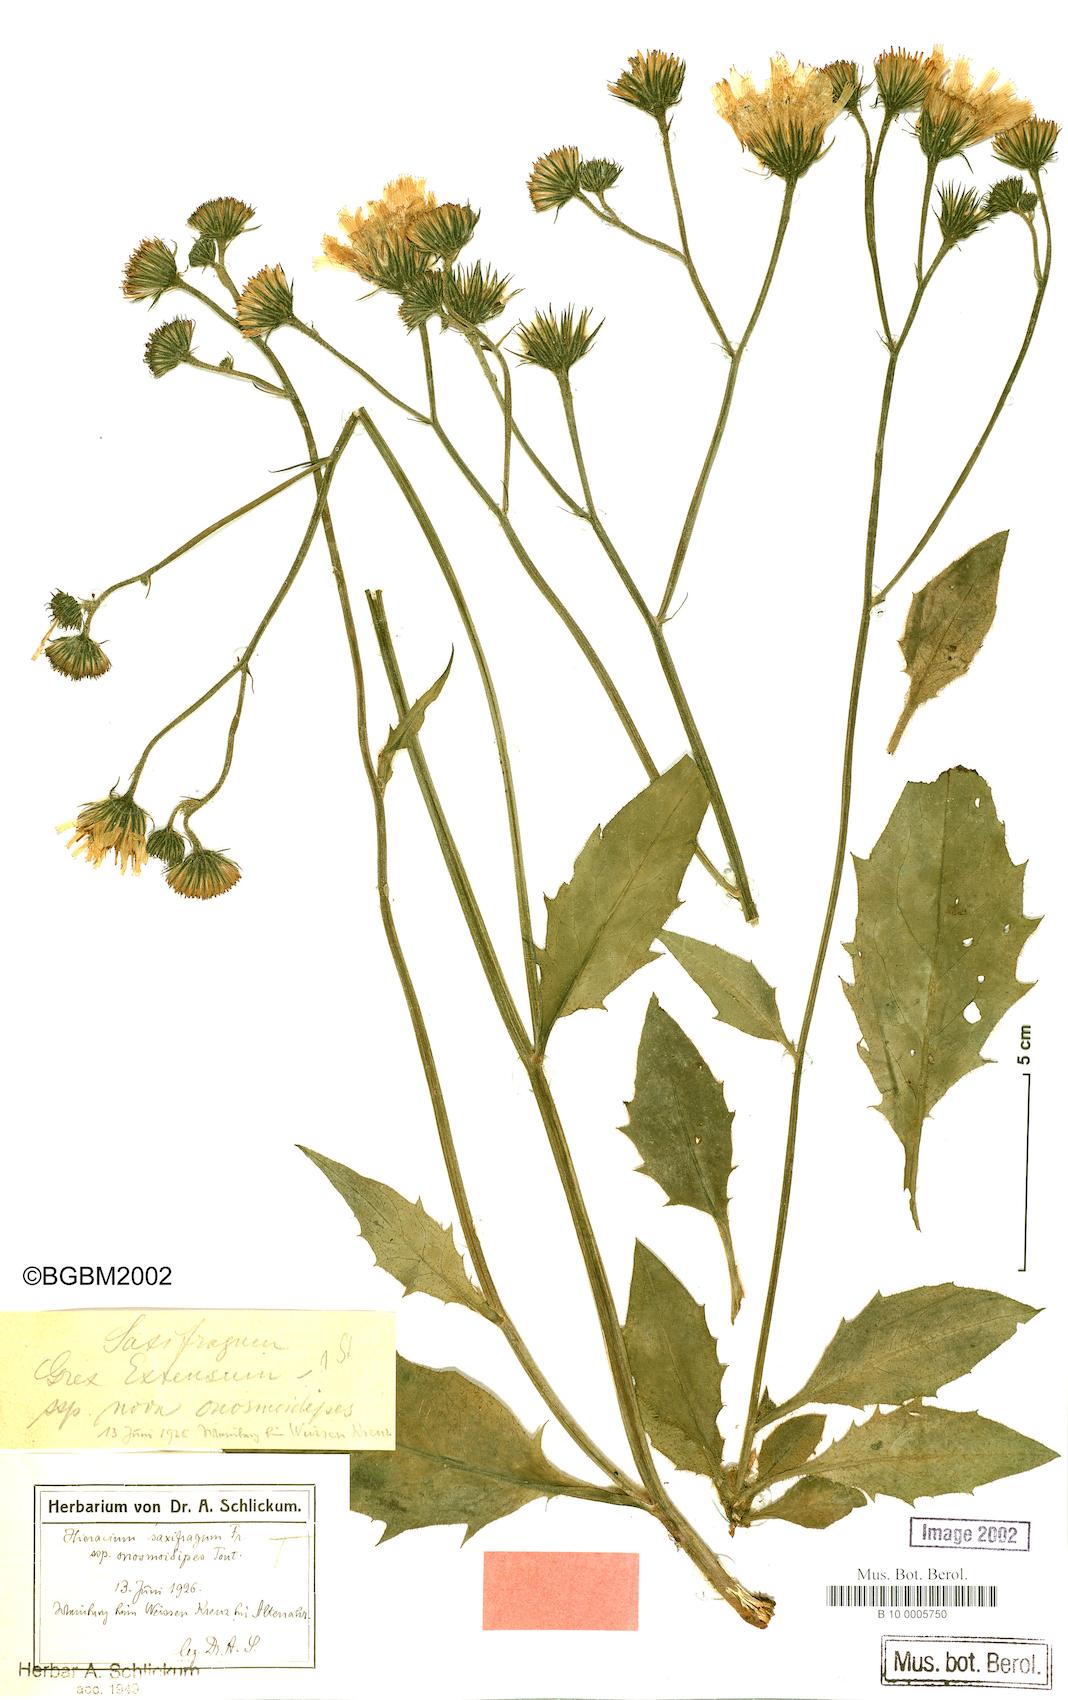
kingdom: Plantae
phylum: Tracheophyta
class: Magnoliopsida
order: Asterales
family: Asteraceae
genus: Hieracium
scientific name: Hieracium saxifragum
